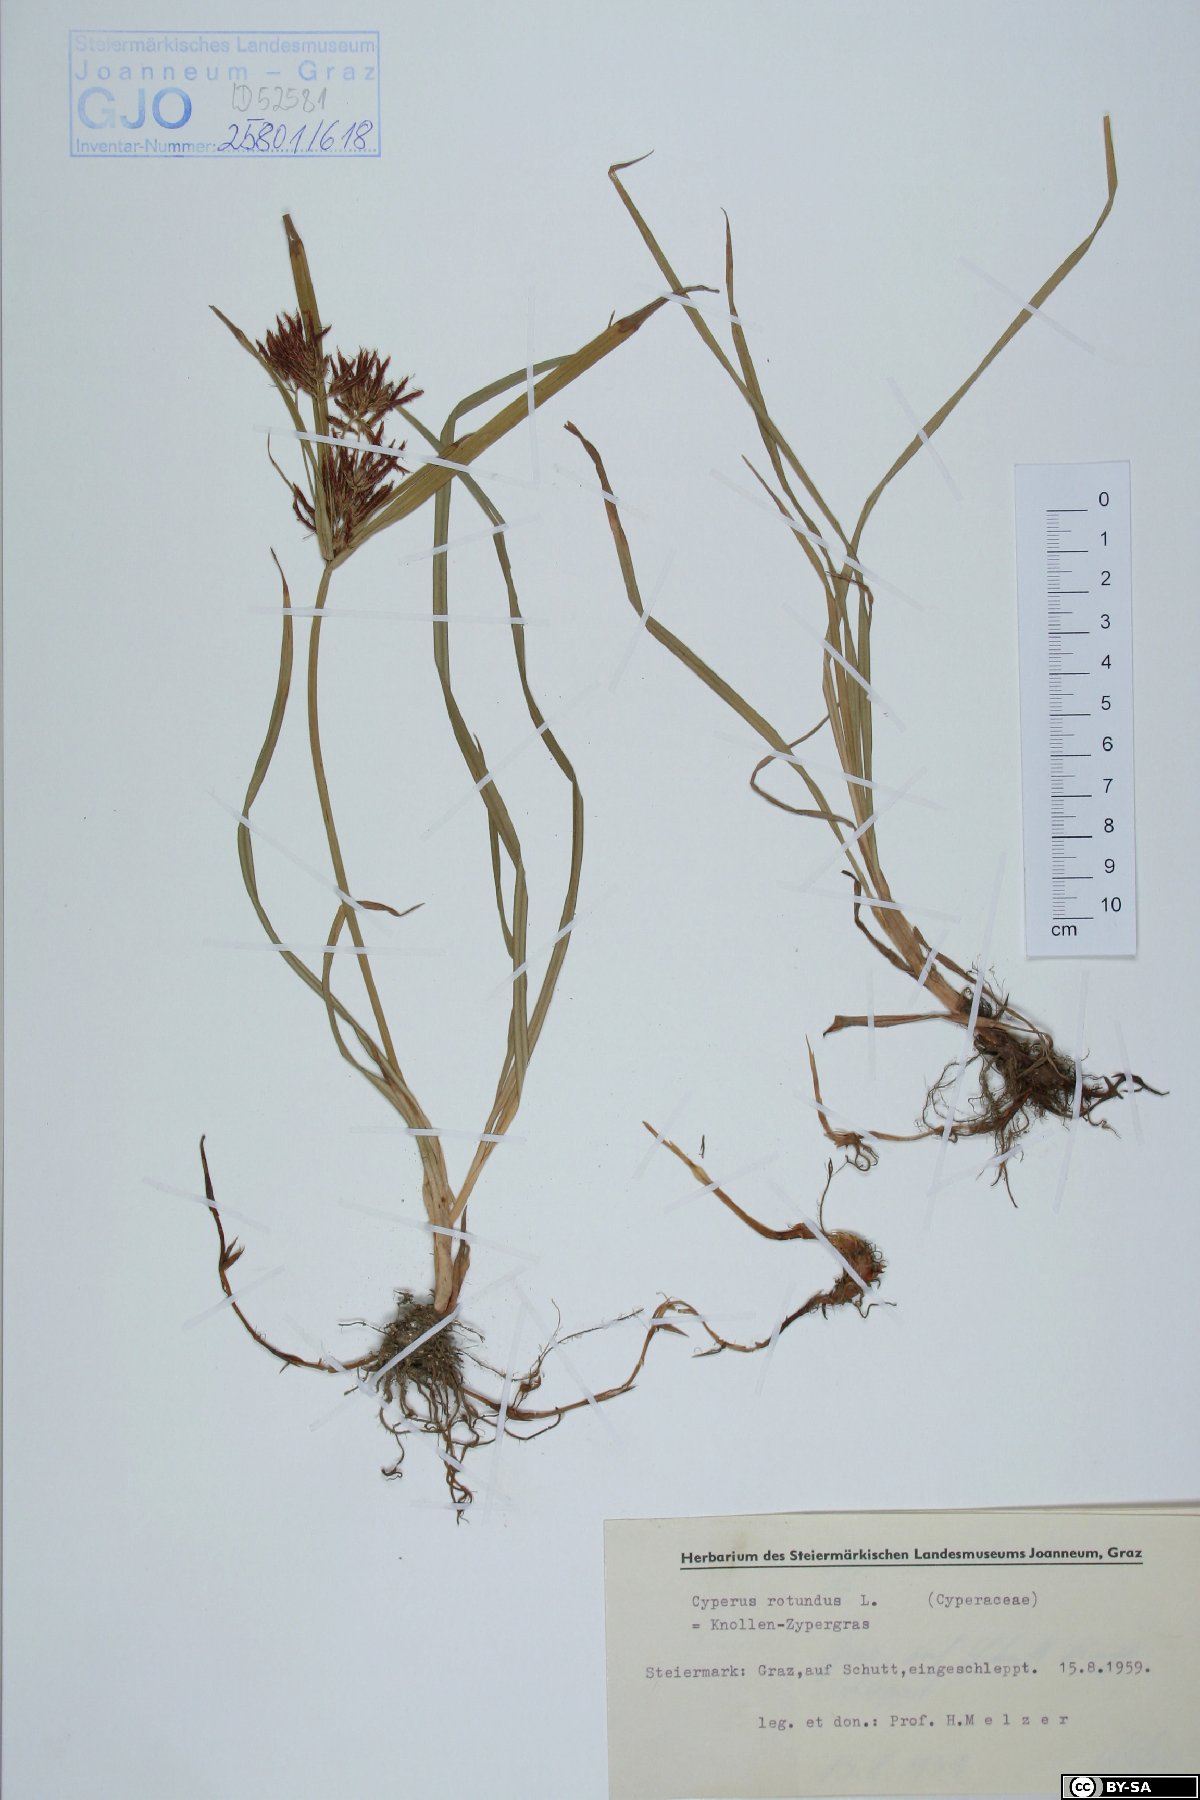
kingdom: Plantae
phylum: Tracheophyta
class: Liliopsida
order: Poales
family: Cyperaceae
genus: Cyperus
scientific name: Cyperus rotundus
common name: Nutgrass
